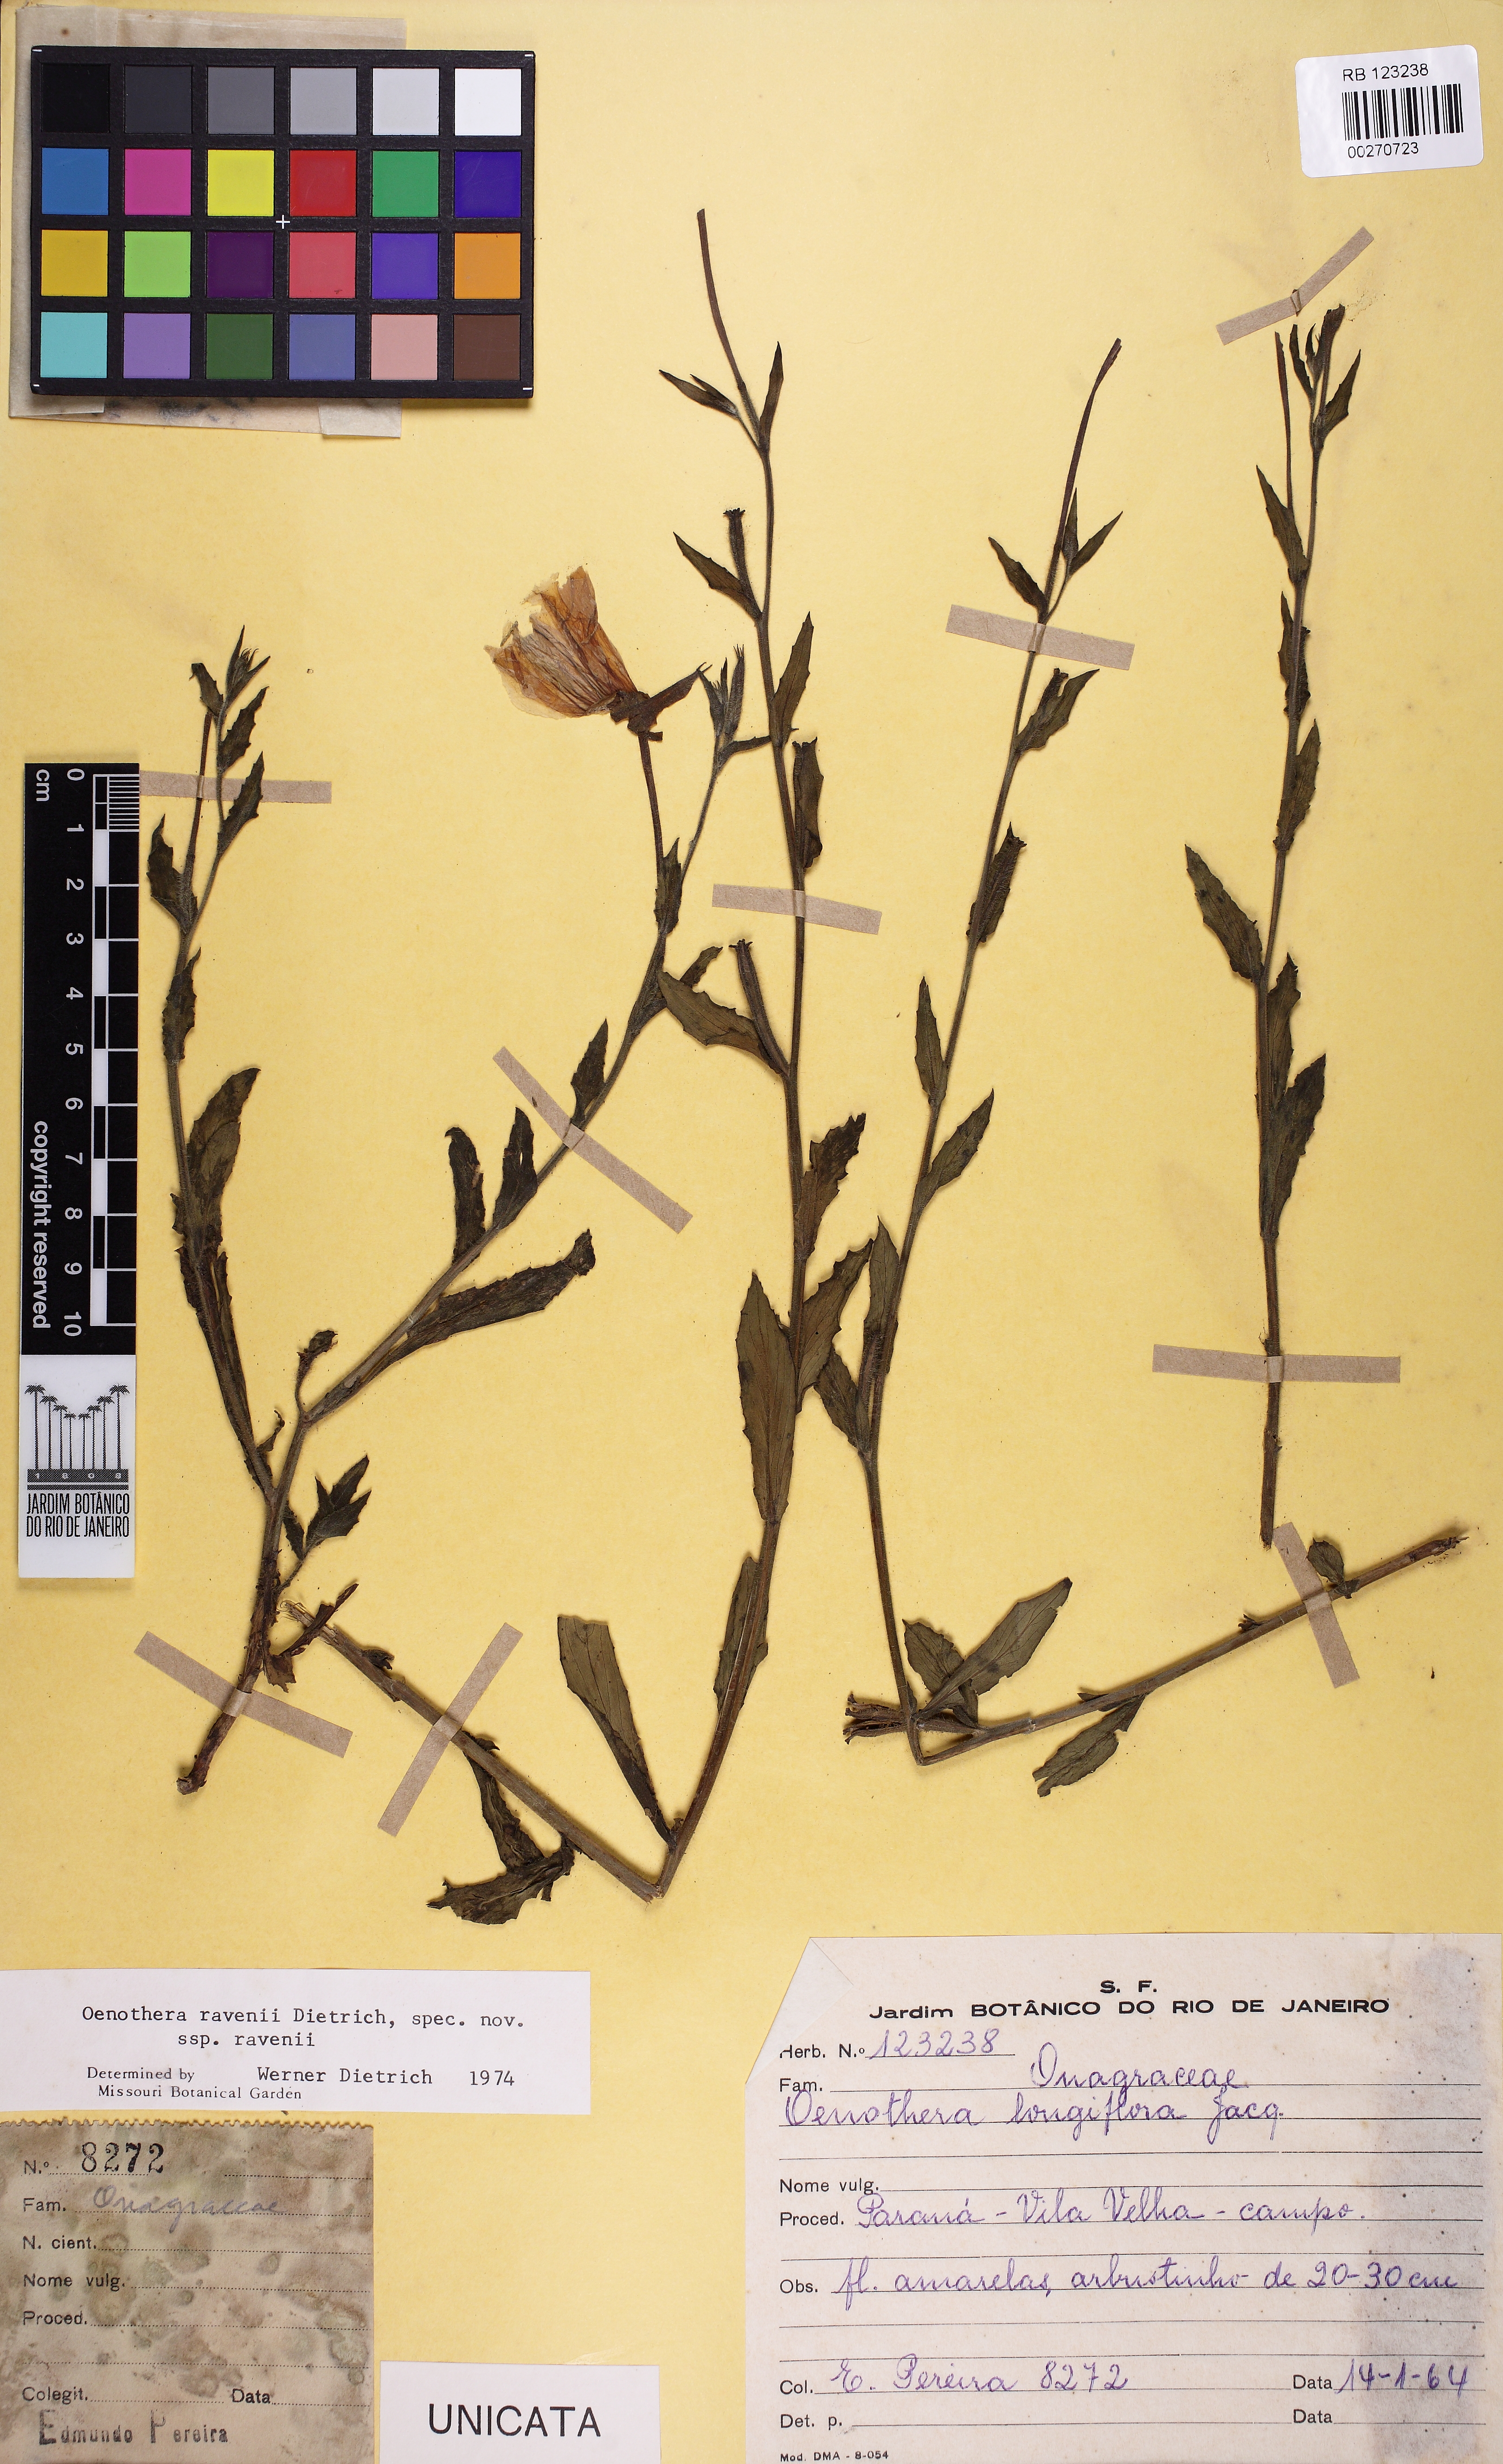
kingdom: Plantae
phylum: Tracheophyta
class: Magnoliopsida
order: Myrtales
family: Onagraceae
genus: Oenothera
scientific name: Oenothera ravenii
